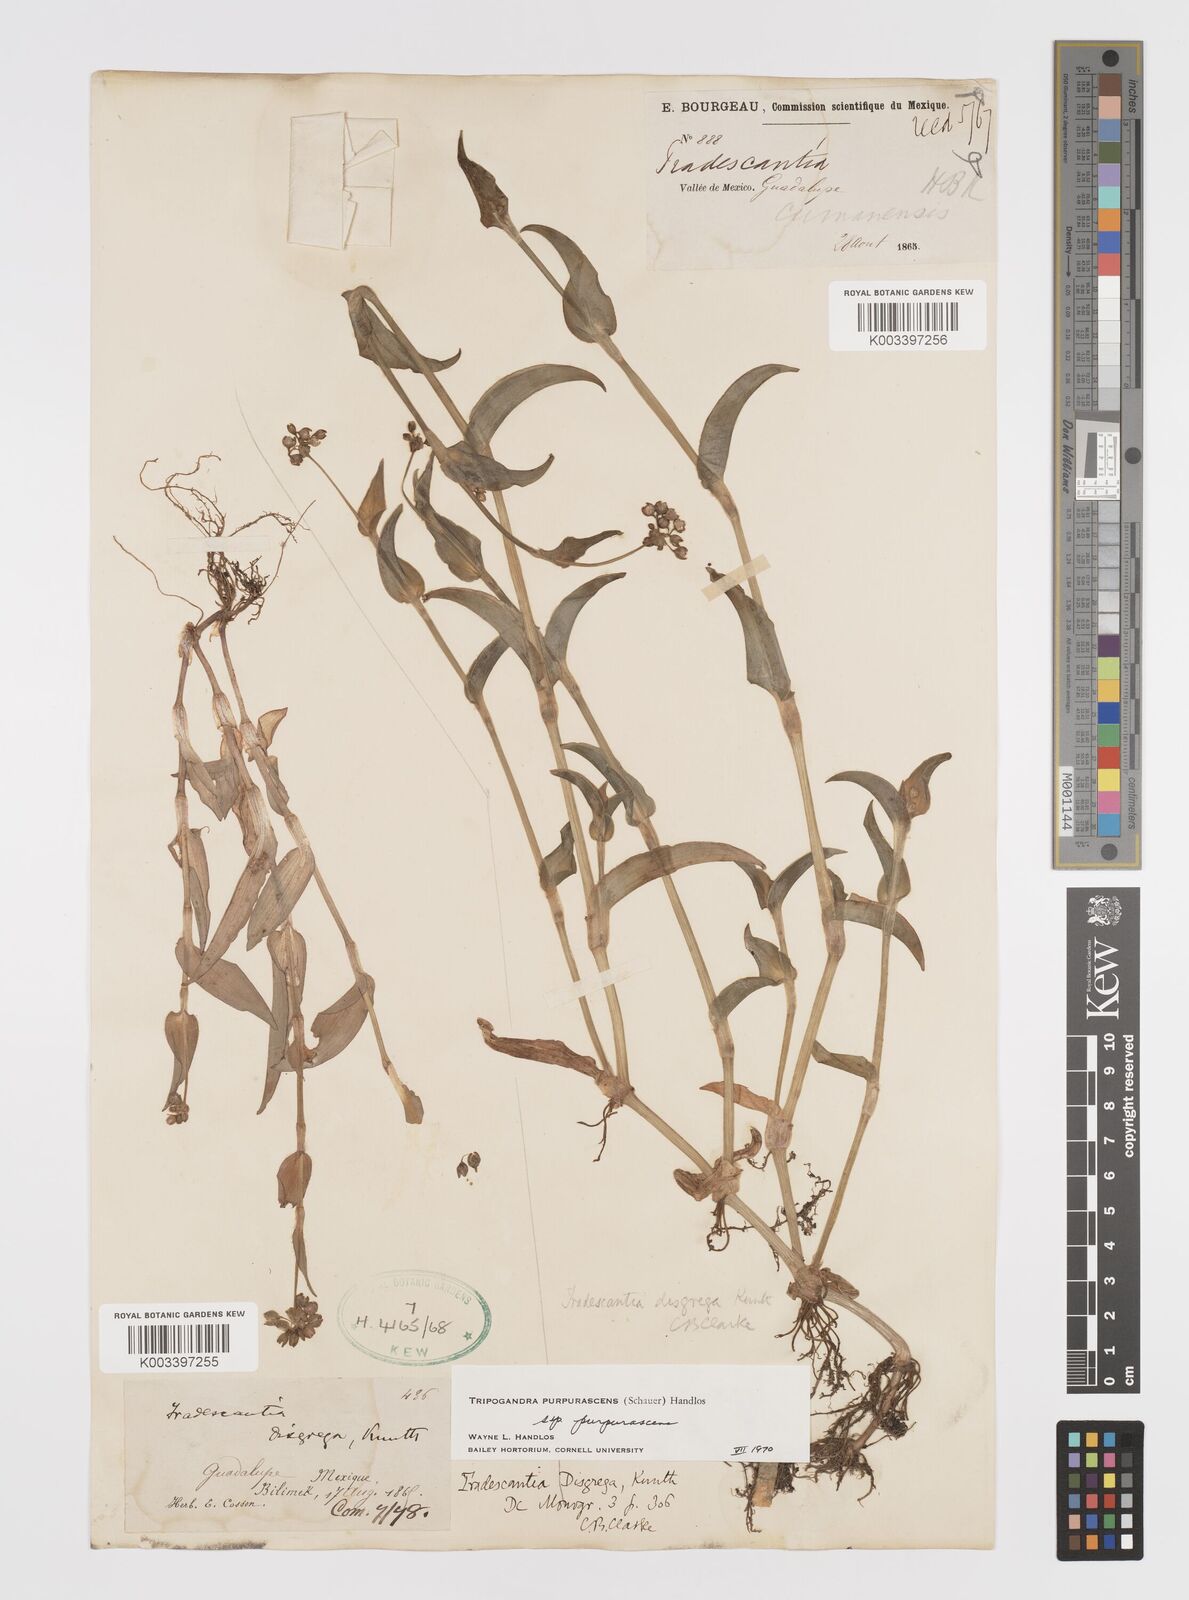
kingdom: Plantae
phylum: Tracheophyta
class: Liliopsida
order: Commelinales
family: Commelinaceae
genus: Callisia
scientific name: Callisia purpurascens
